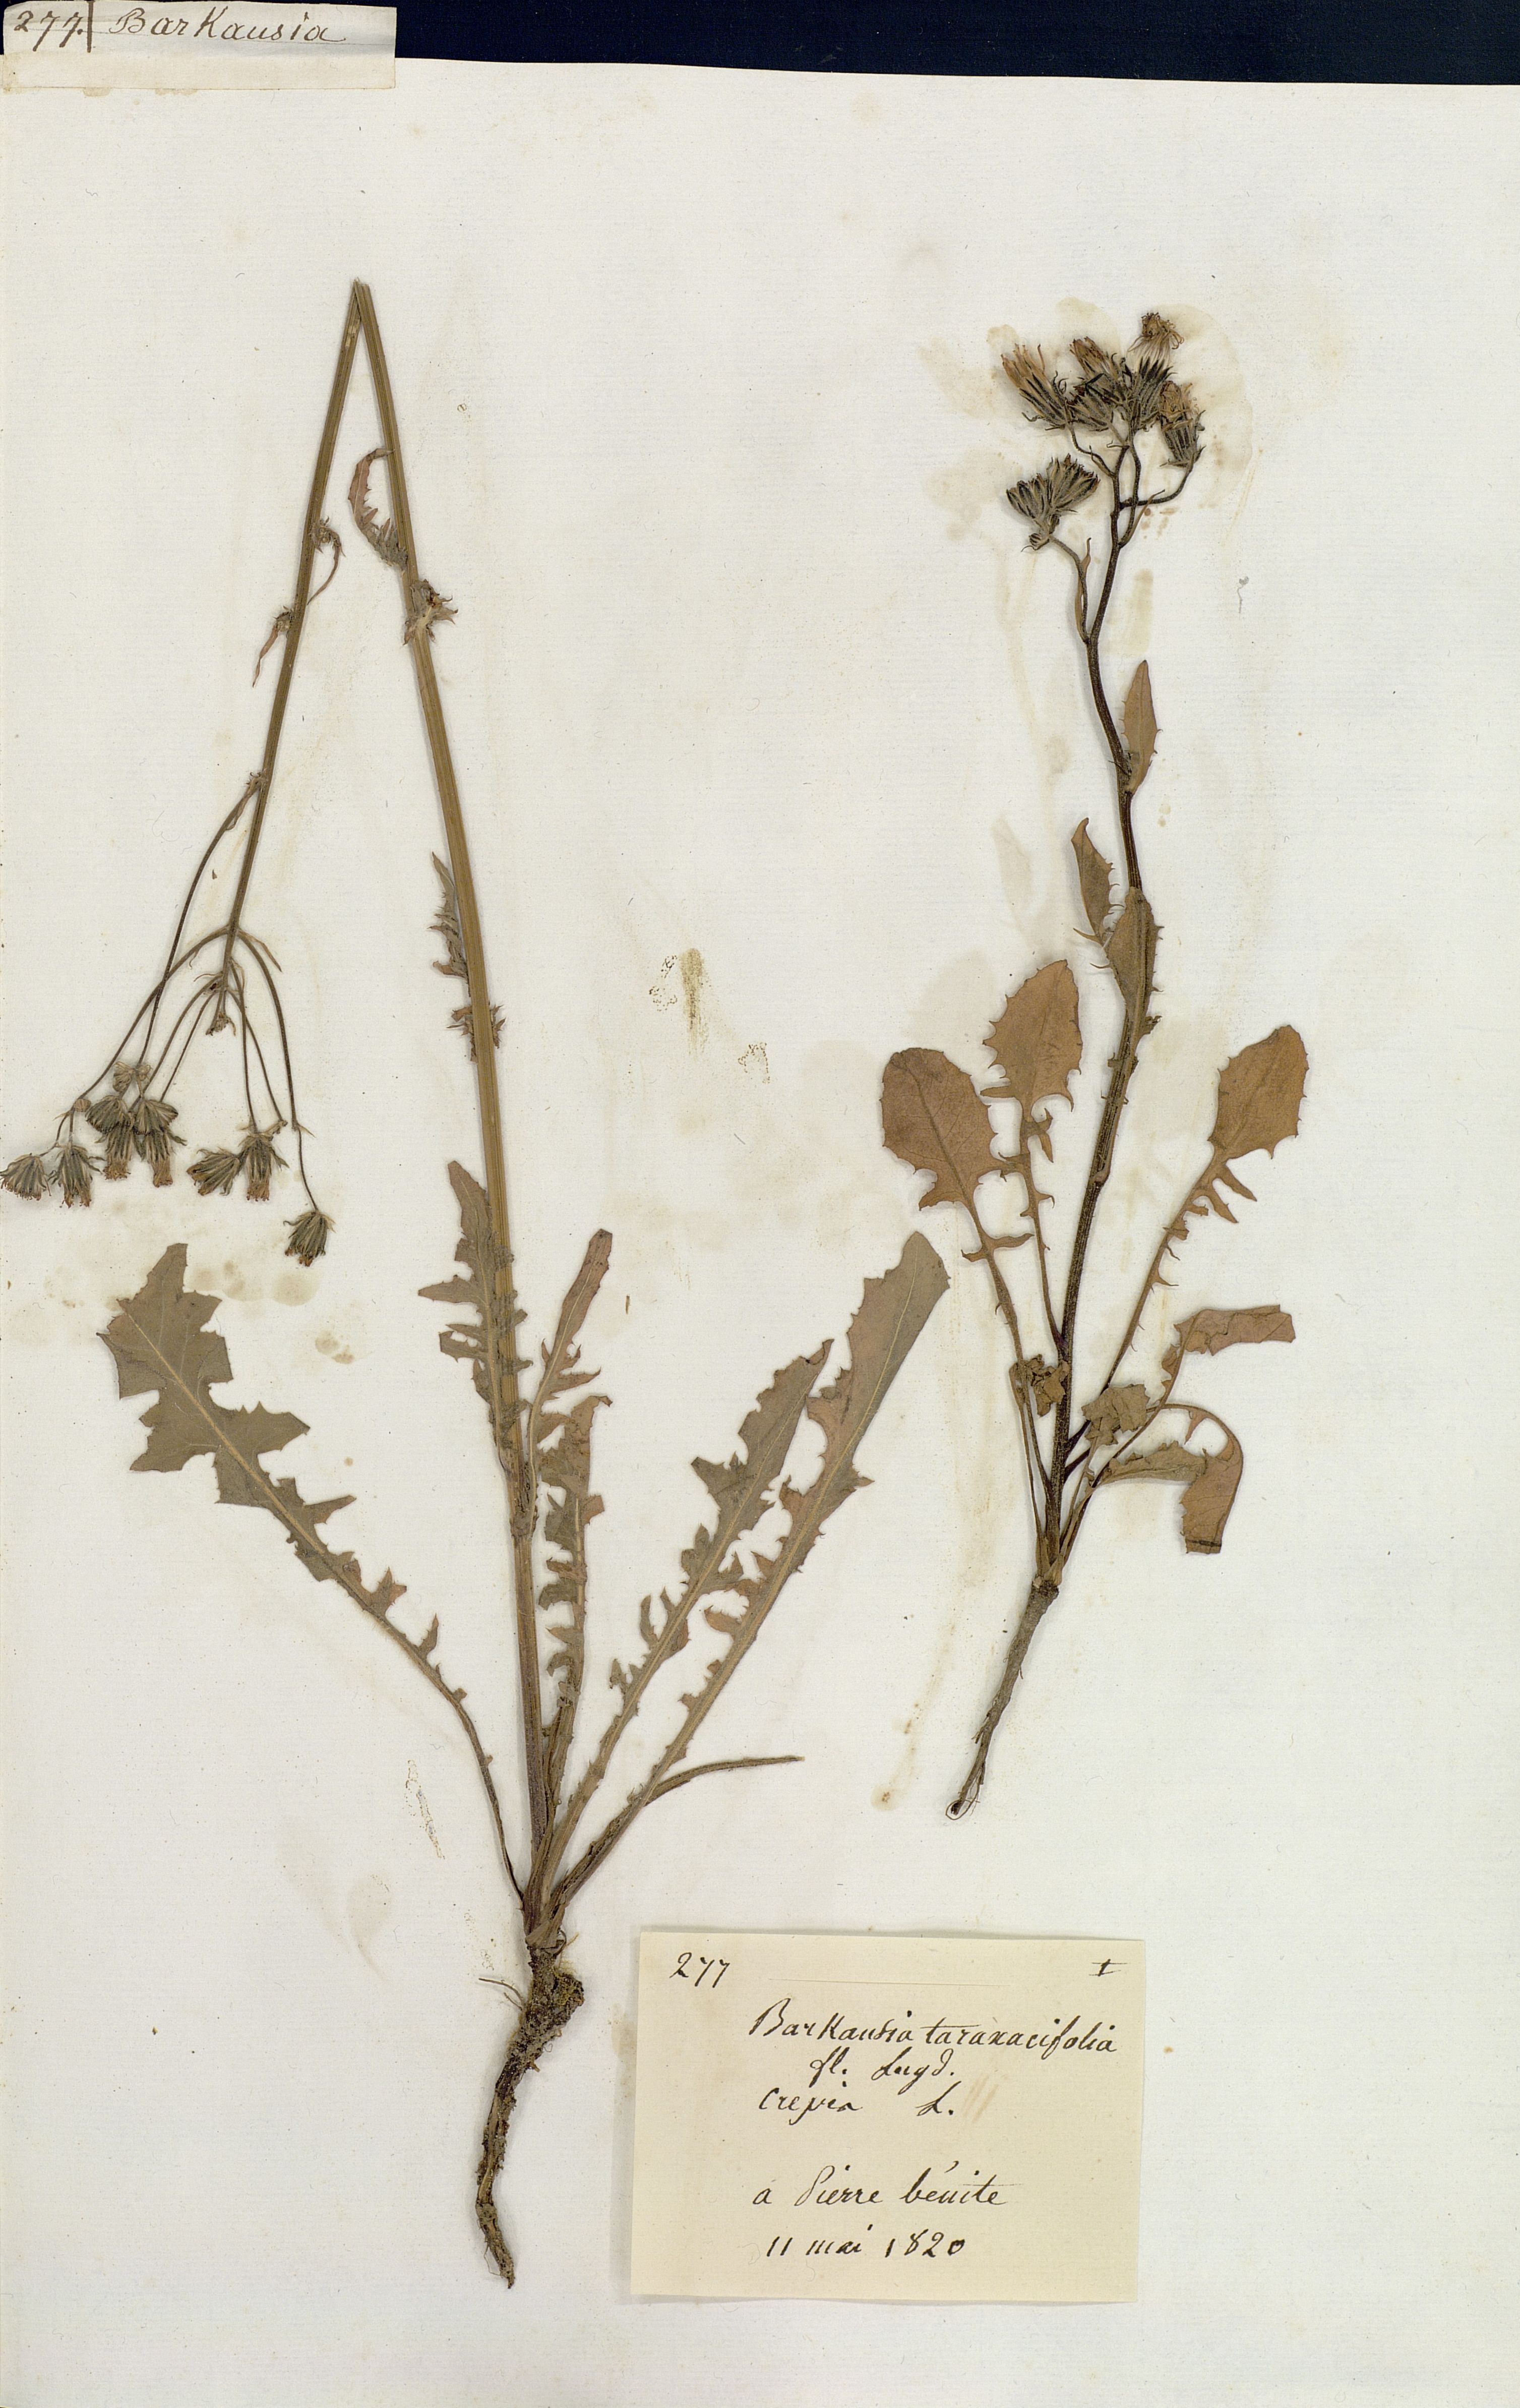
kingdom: Plantae
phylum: Tracheophyta
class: Magnoliopsida
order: Asterales
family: Asteraceae
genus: Crepis
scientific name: Crepis vesicaria
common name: Beaked hawksbeard
